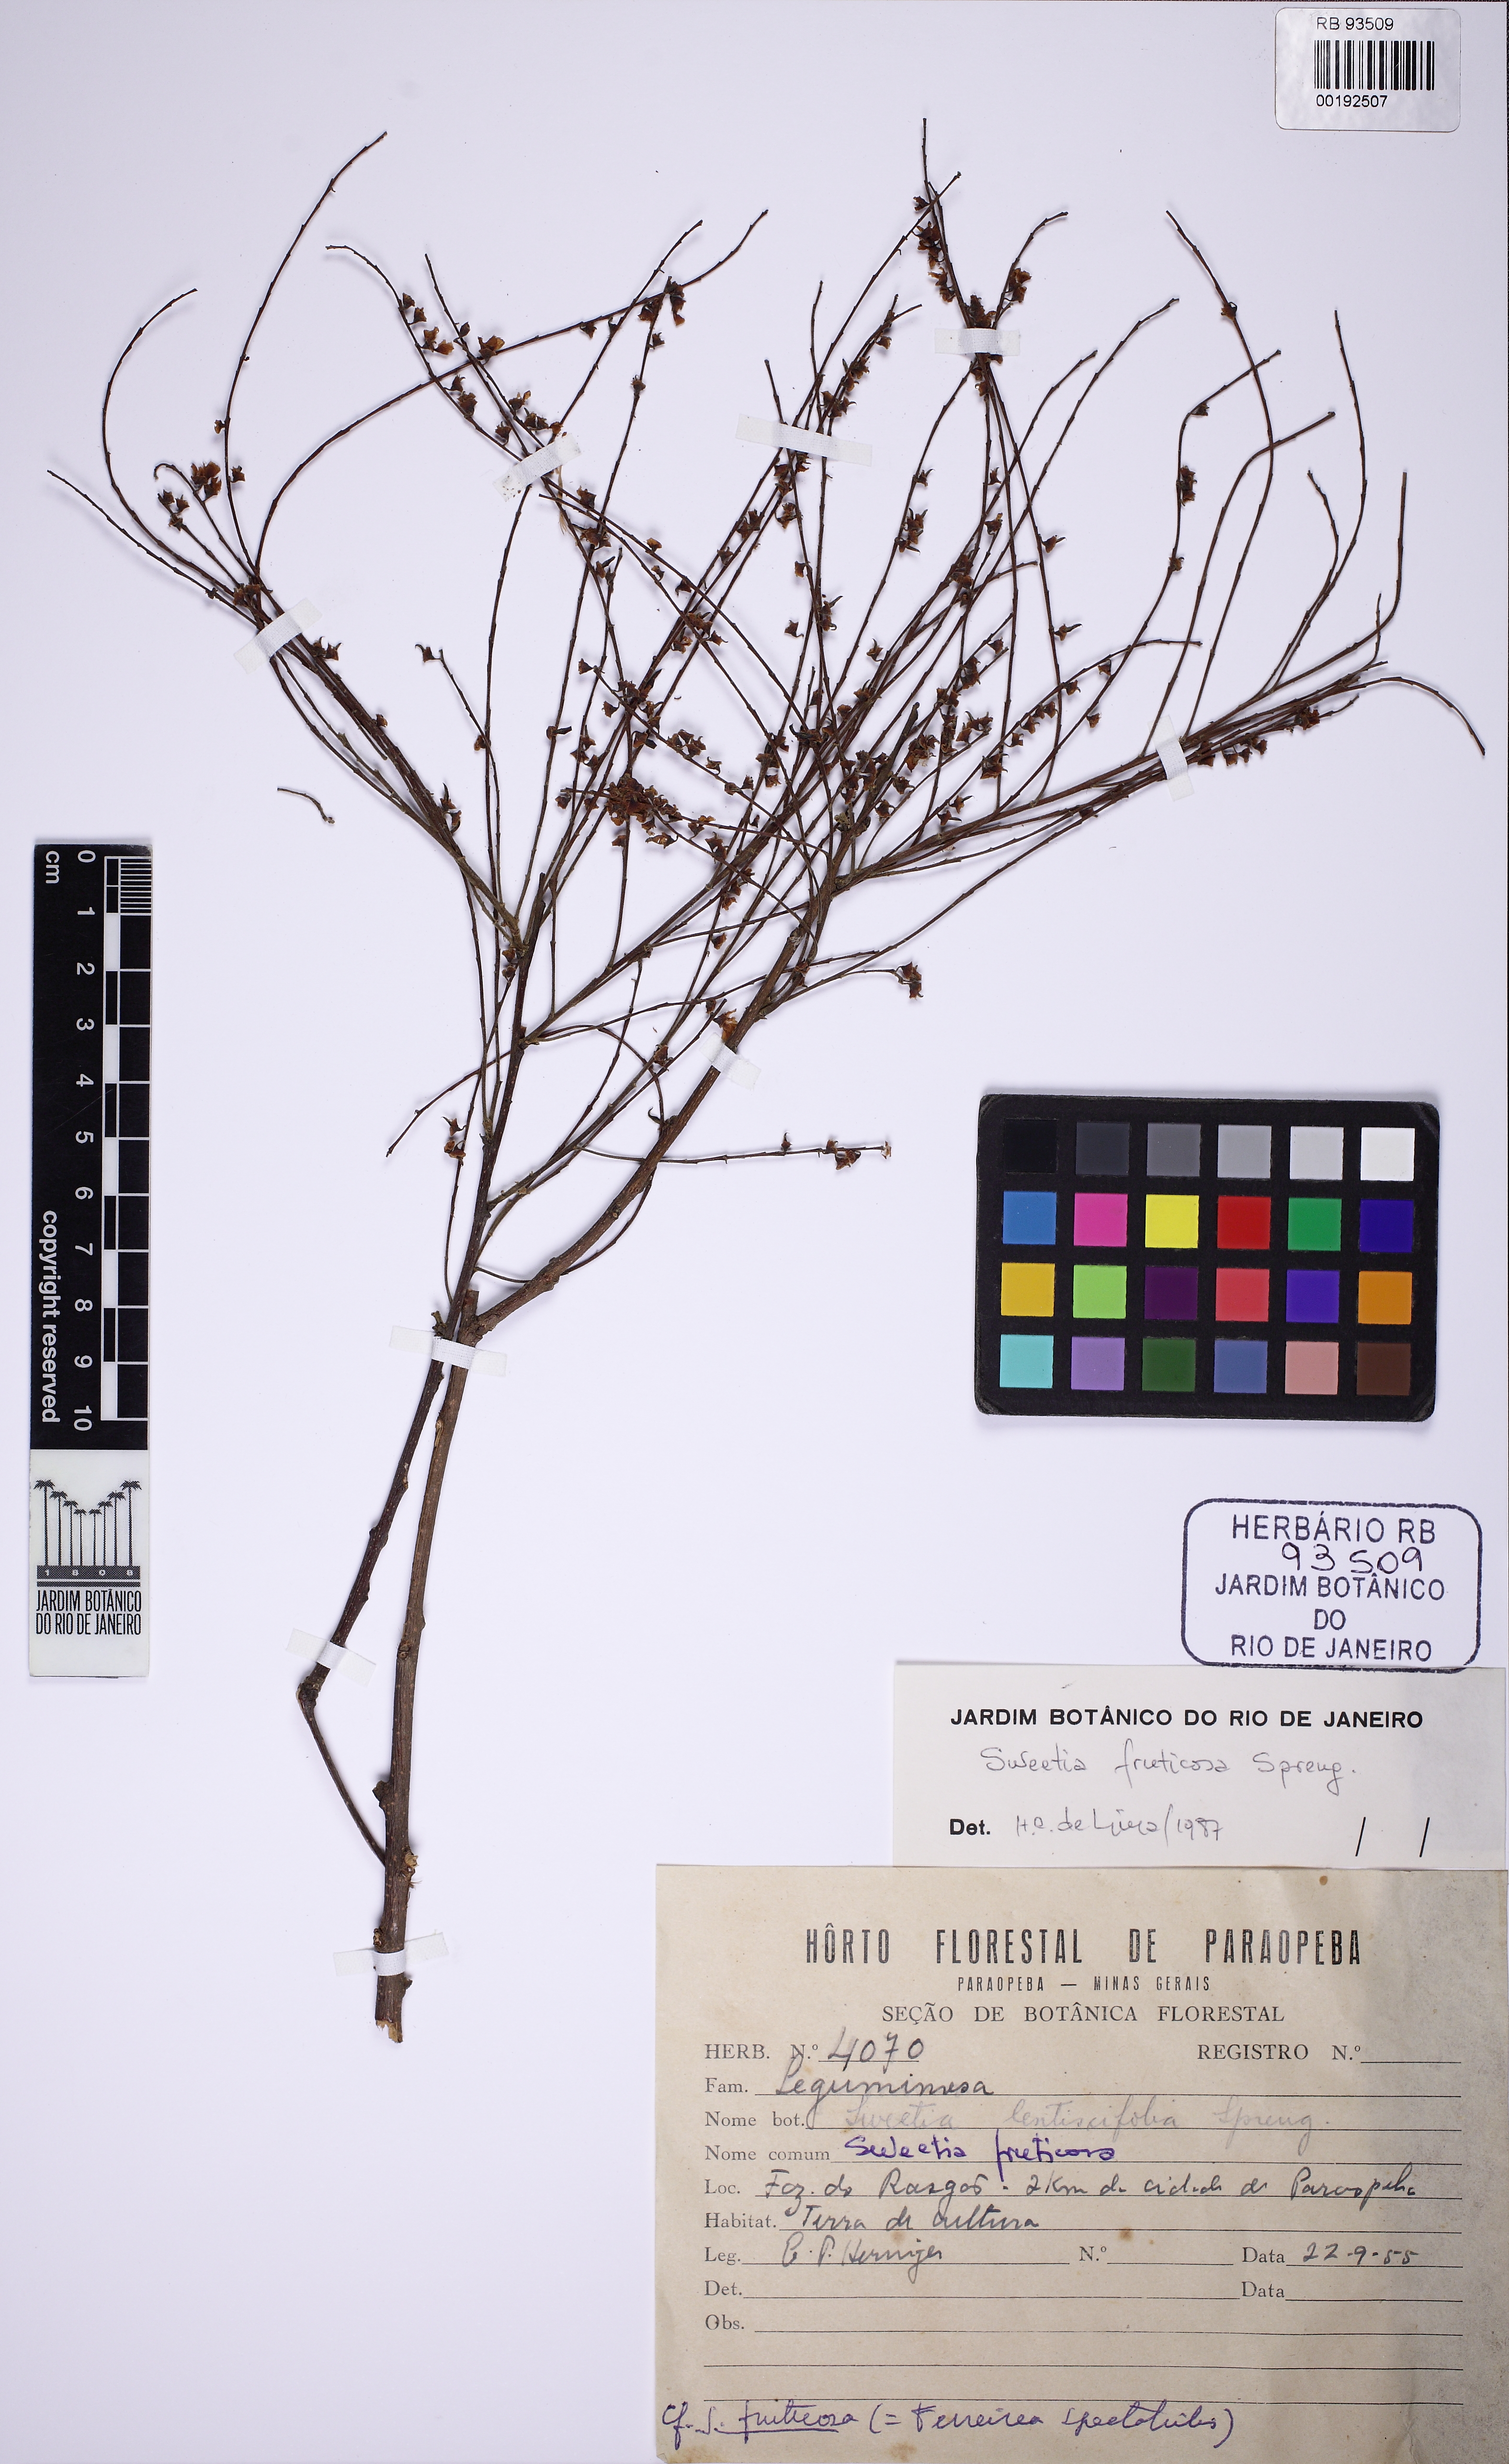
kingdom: Plantae
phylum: Tracheophyta
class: Magnoliopsida
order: Fabales
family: Fabaceae
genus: Sweetia
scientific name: Sweetia fruticosa
